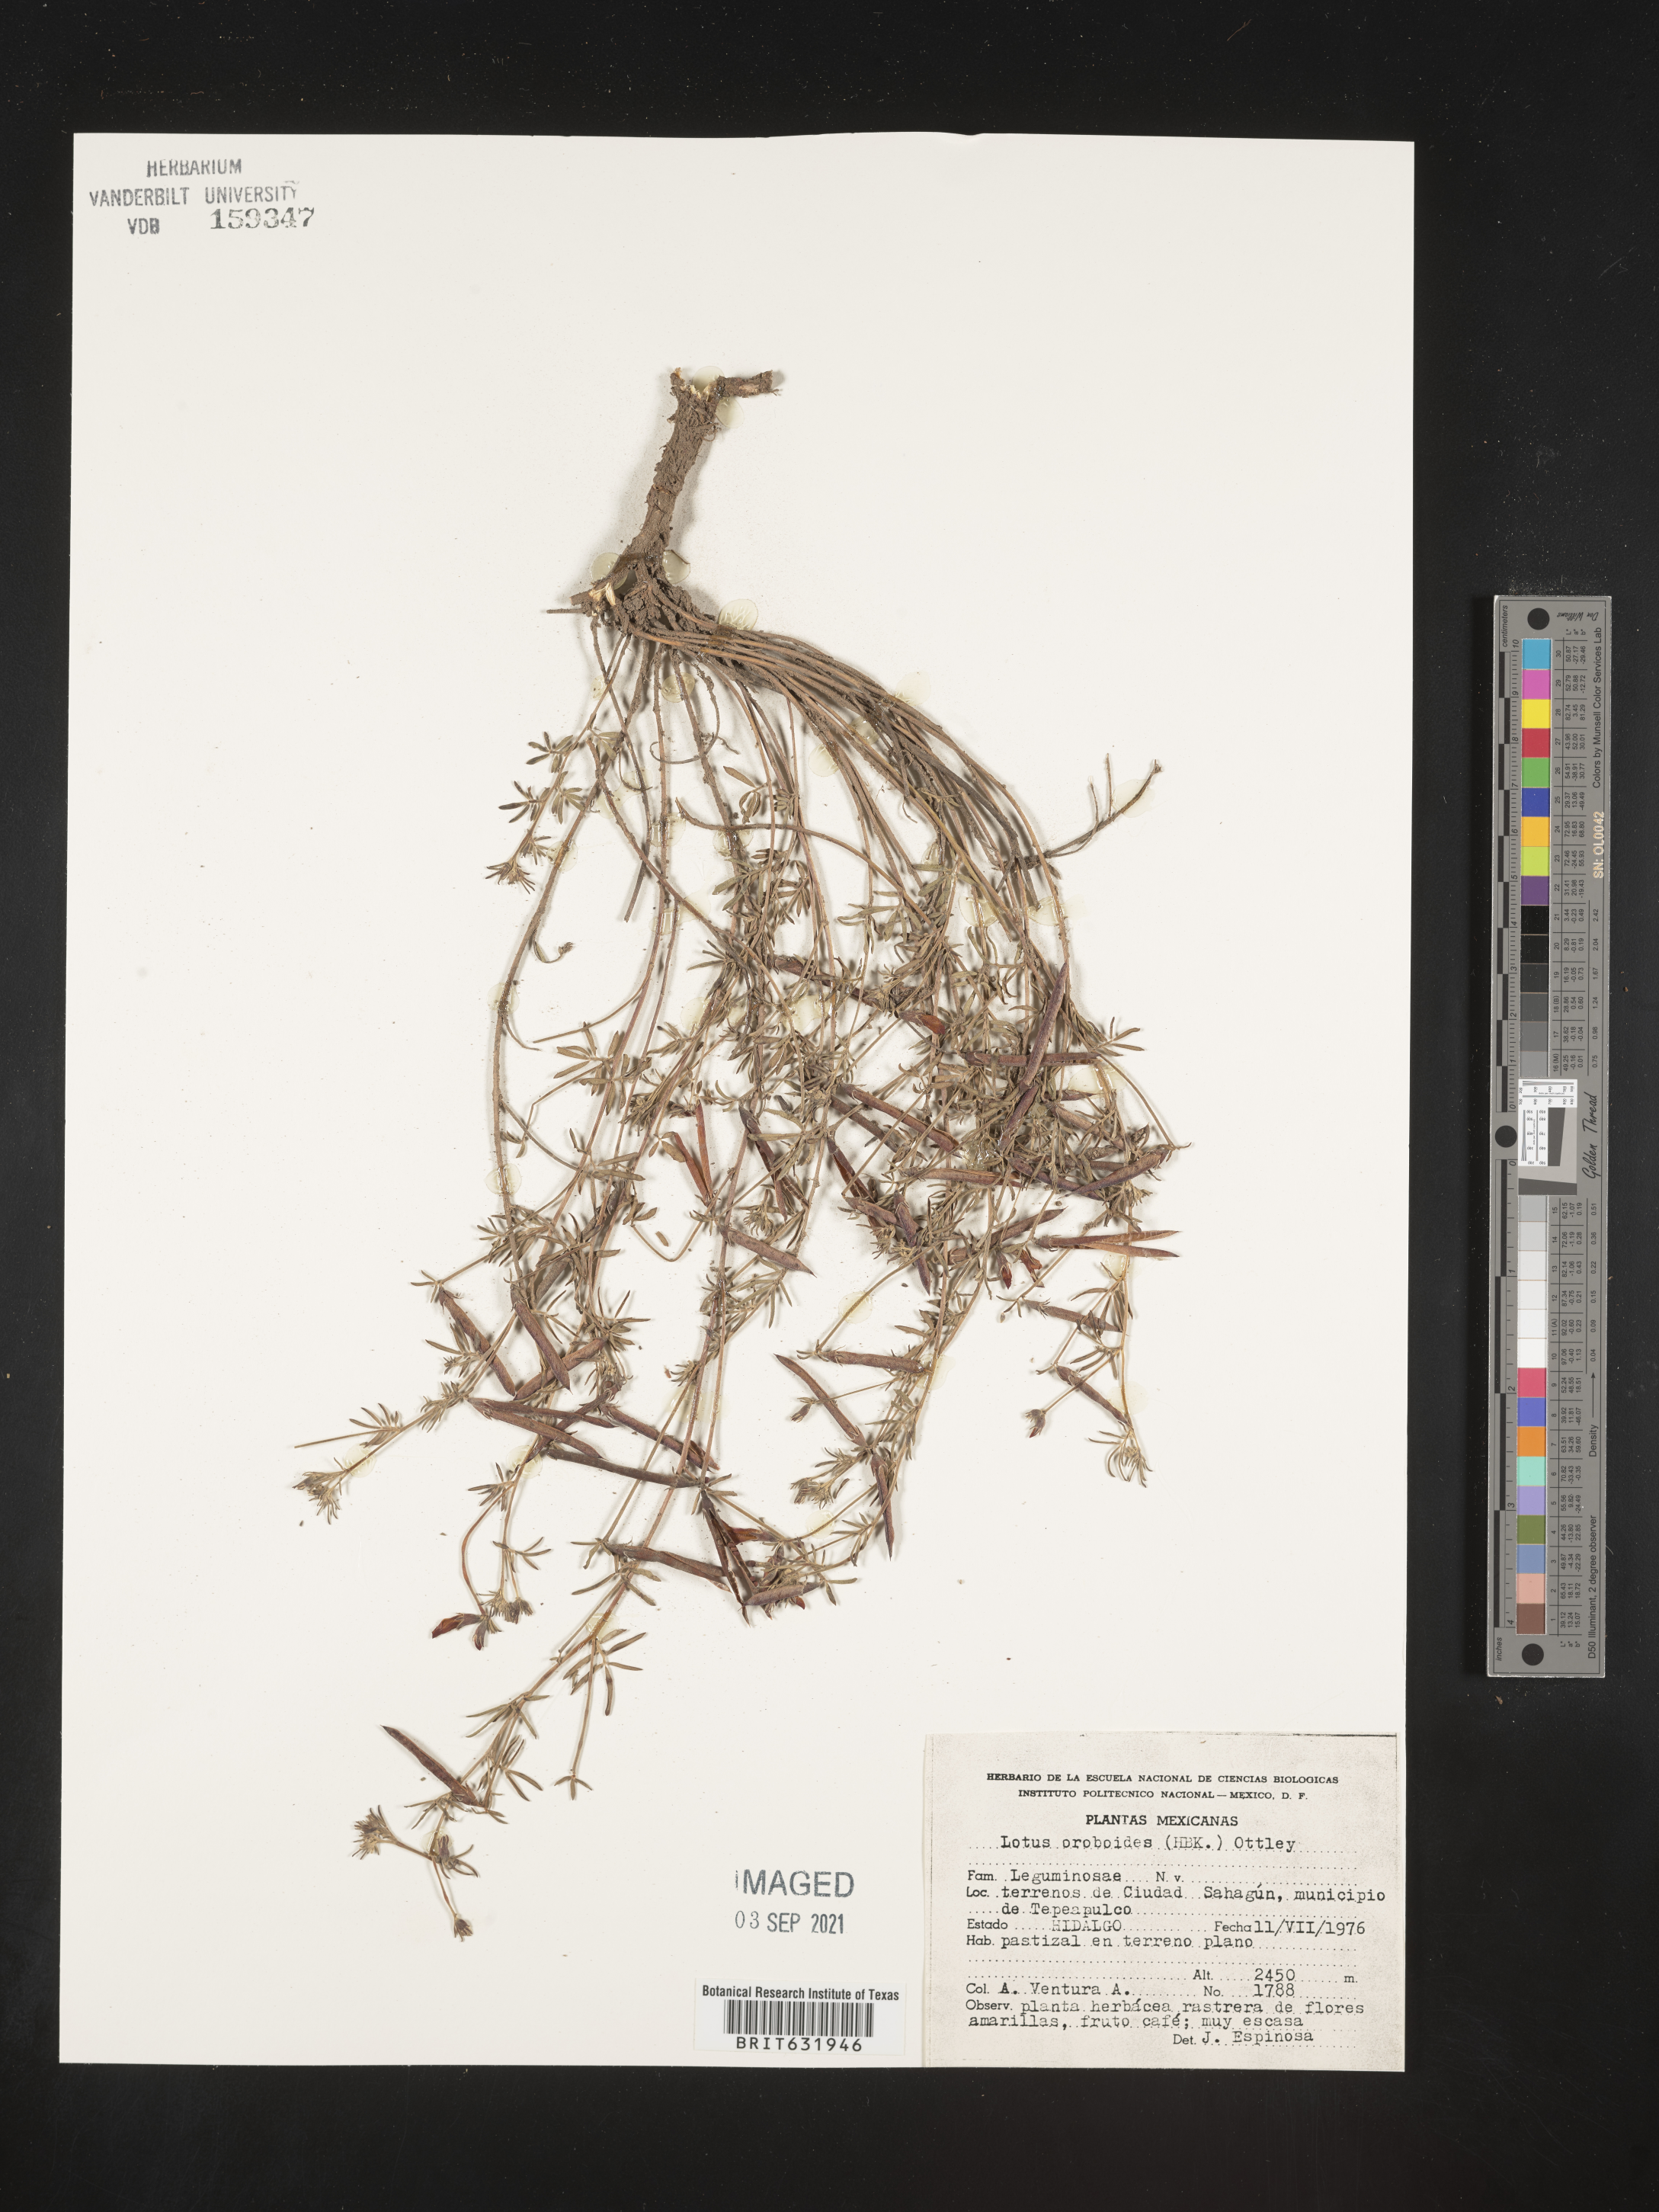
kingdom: Plantae
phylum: Tracheophyta
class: Magnoliopsida
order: Fabales
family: Fabaceae
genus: Lotus
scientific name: Lotus
